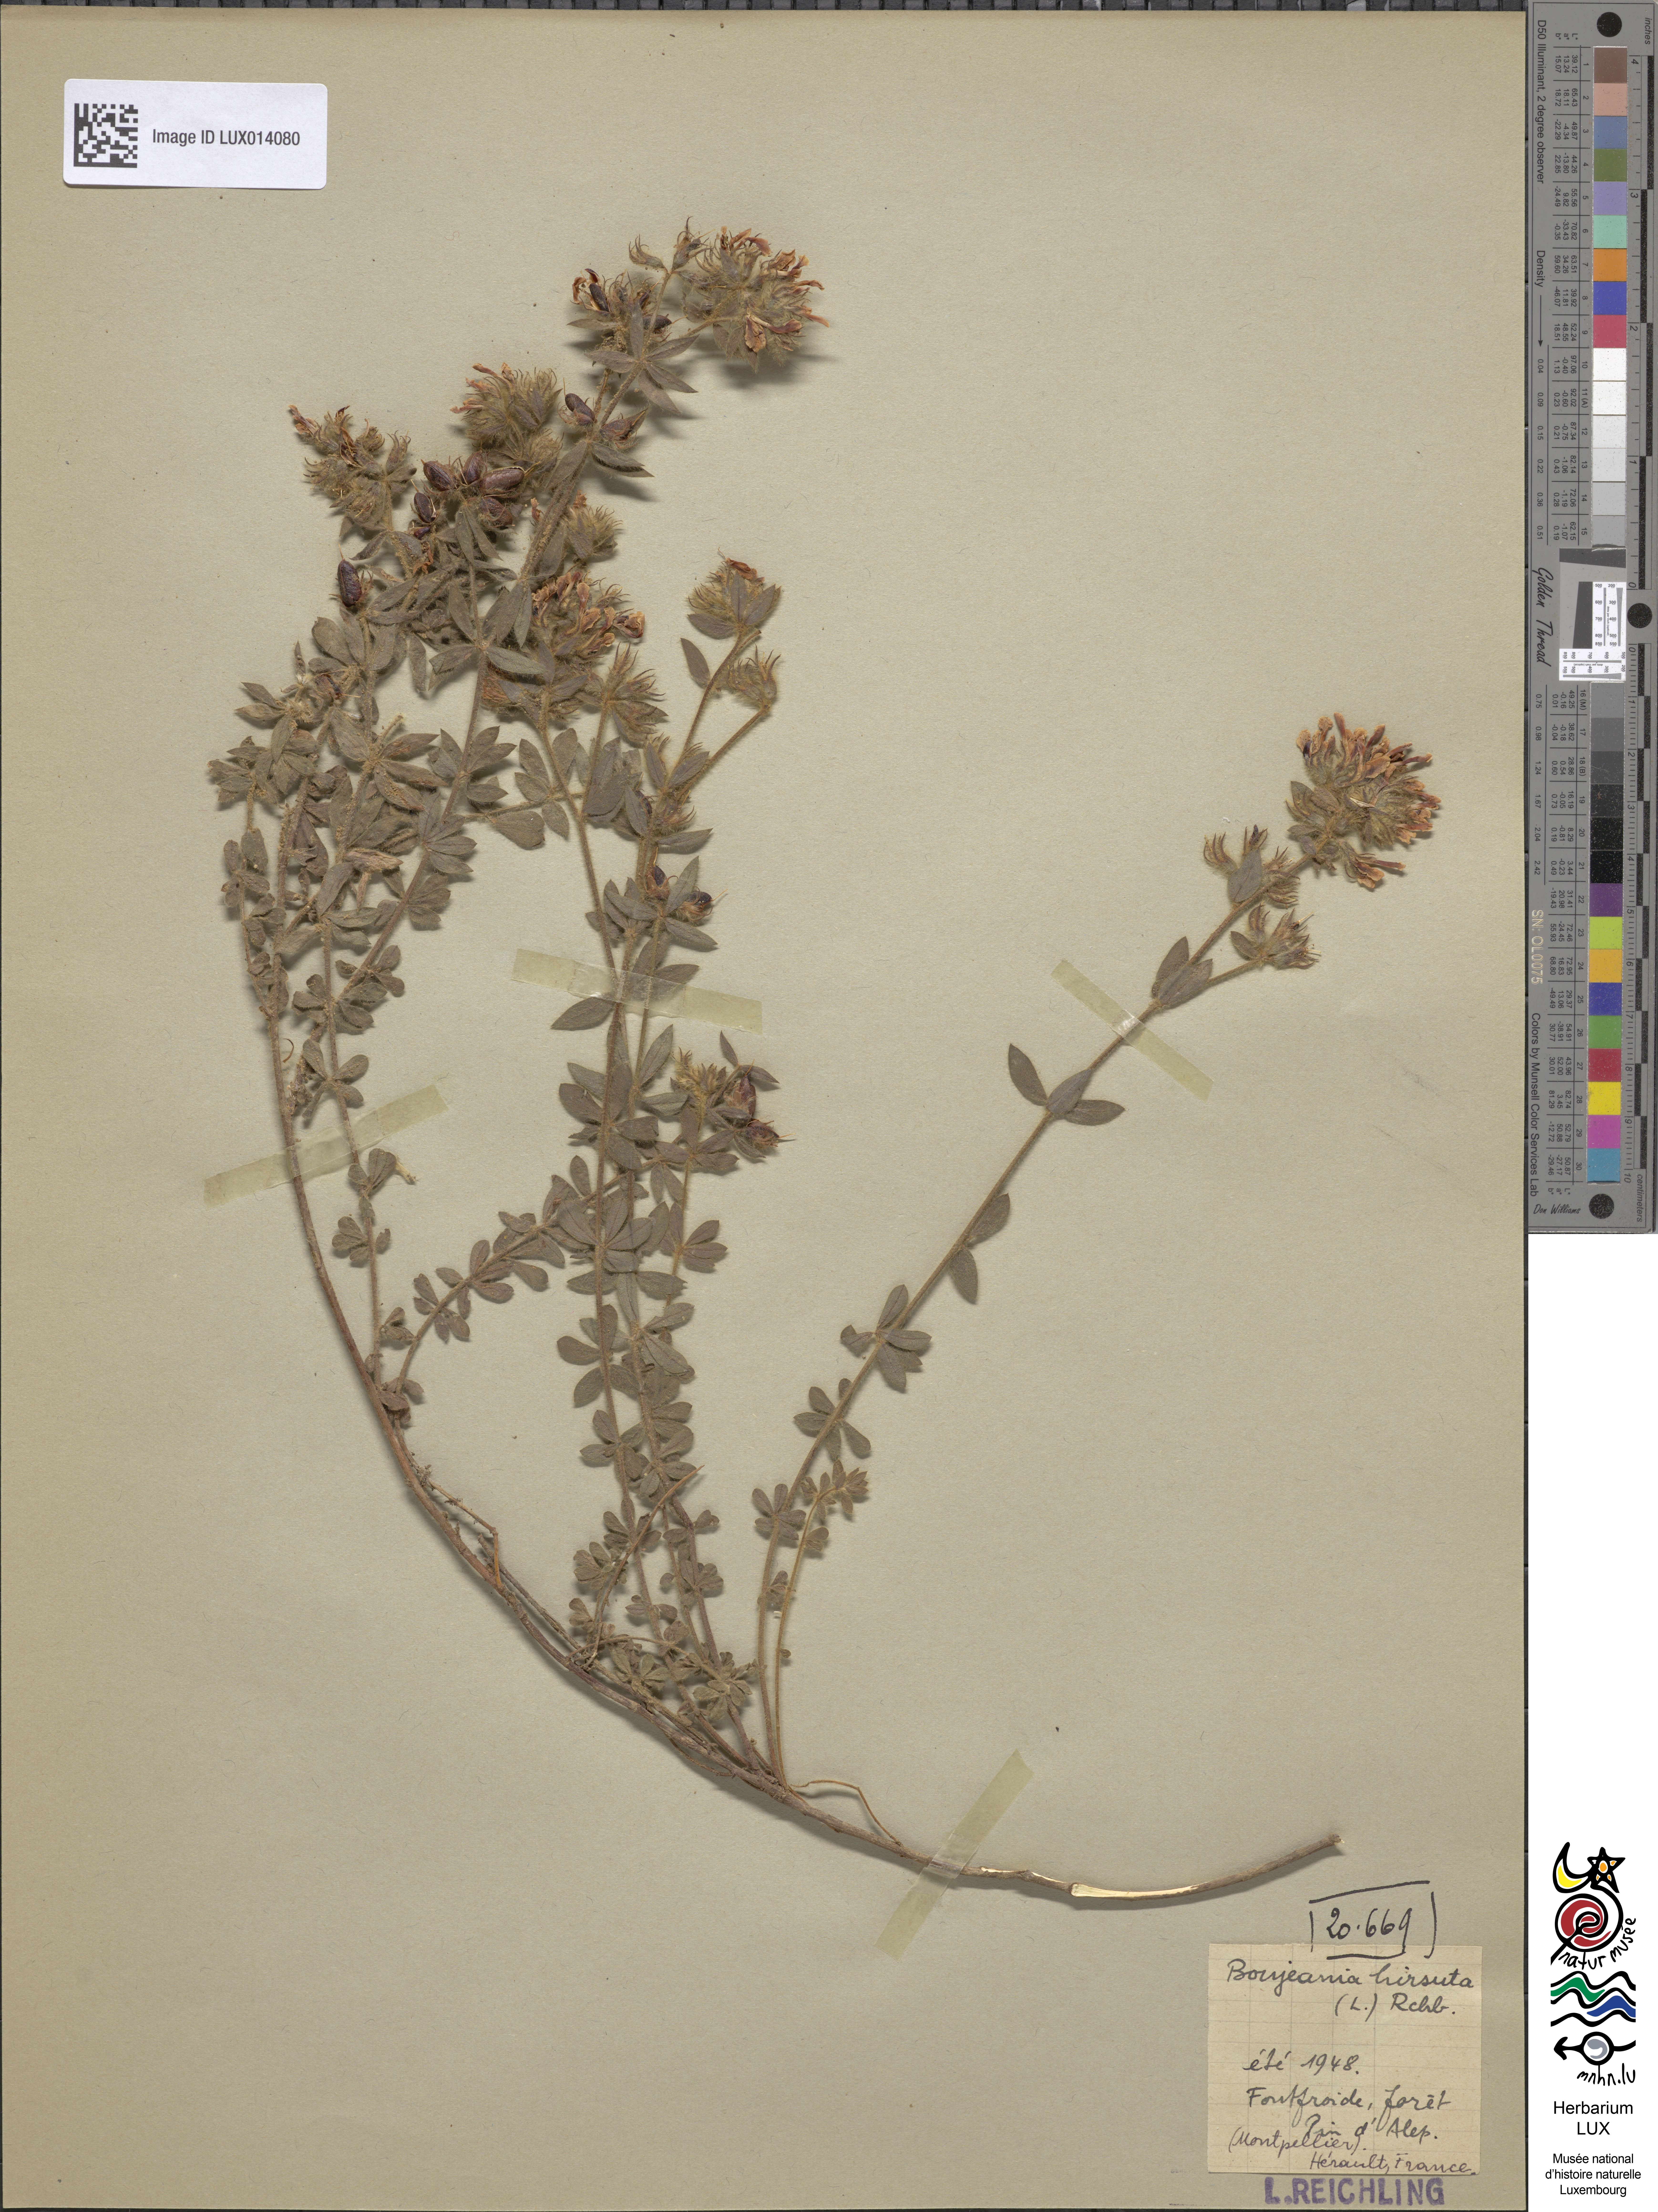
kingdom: Plantae
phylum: Tracheophyta
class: Magnoliopsida
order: Fabales
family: Fabaceae
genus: Lotus
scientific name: Lotus hirsutus
